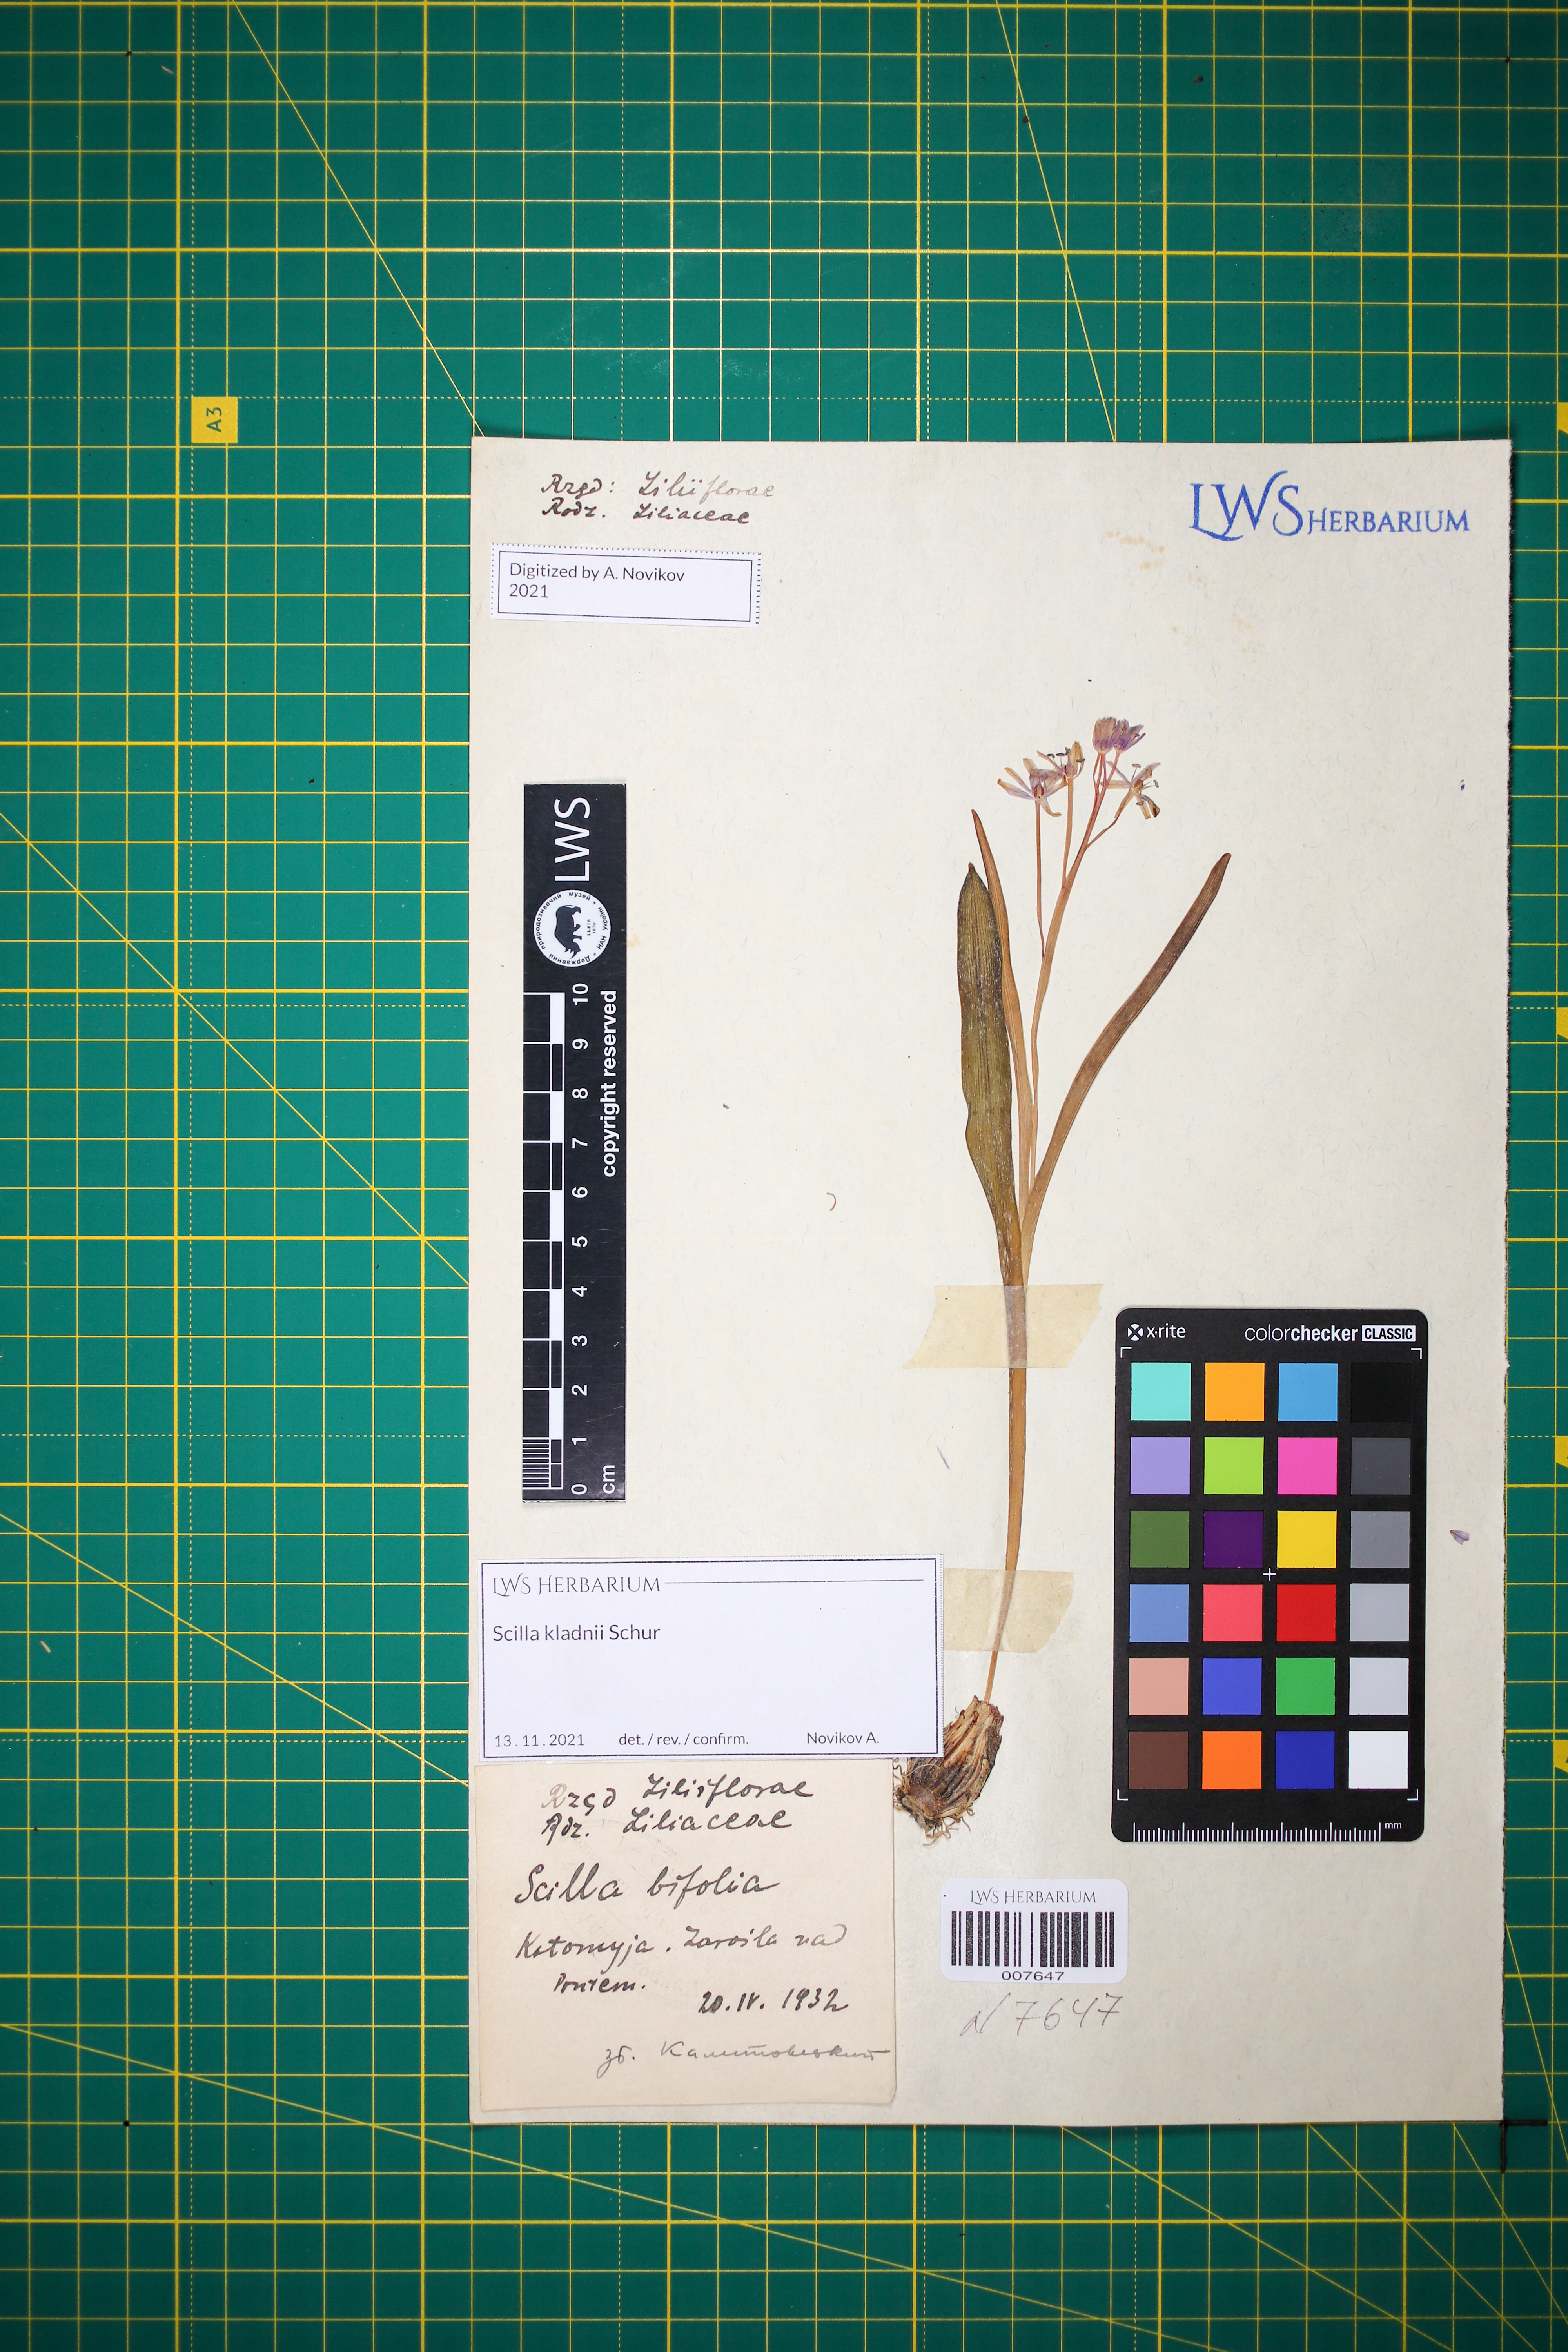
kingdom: Plantae
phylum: Tracheophyta
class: Liliopsida
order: Asparagales
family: Asparagaceae
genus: Scilla
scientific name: Scilla kladnii
